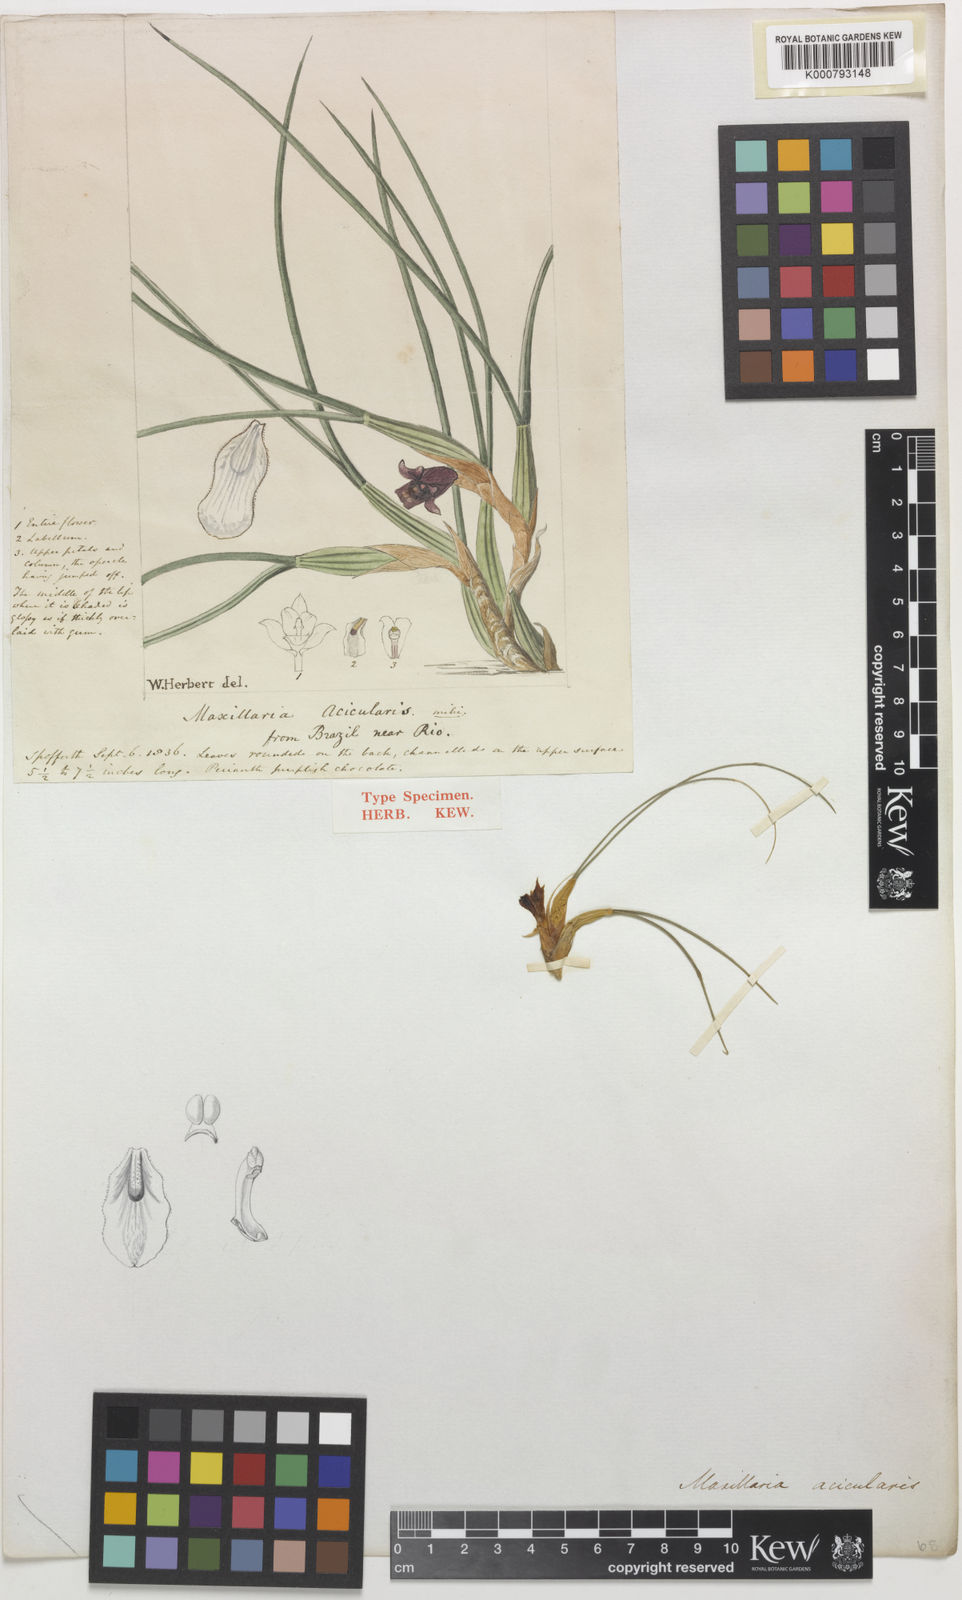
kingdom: Plantae
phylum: Tracheophyta
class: Liliopsida
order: Asparagales
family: Orchidaceae
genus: Maxillaria
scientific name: Maxillaria subulata
